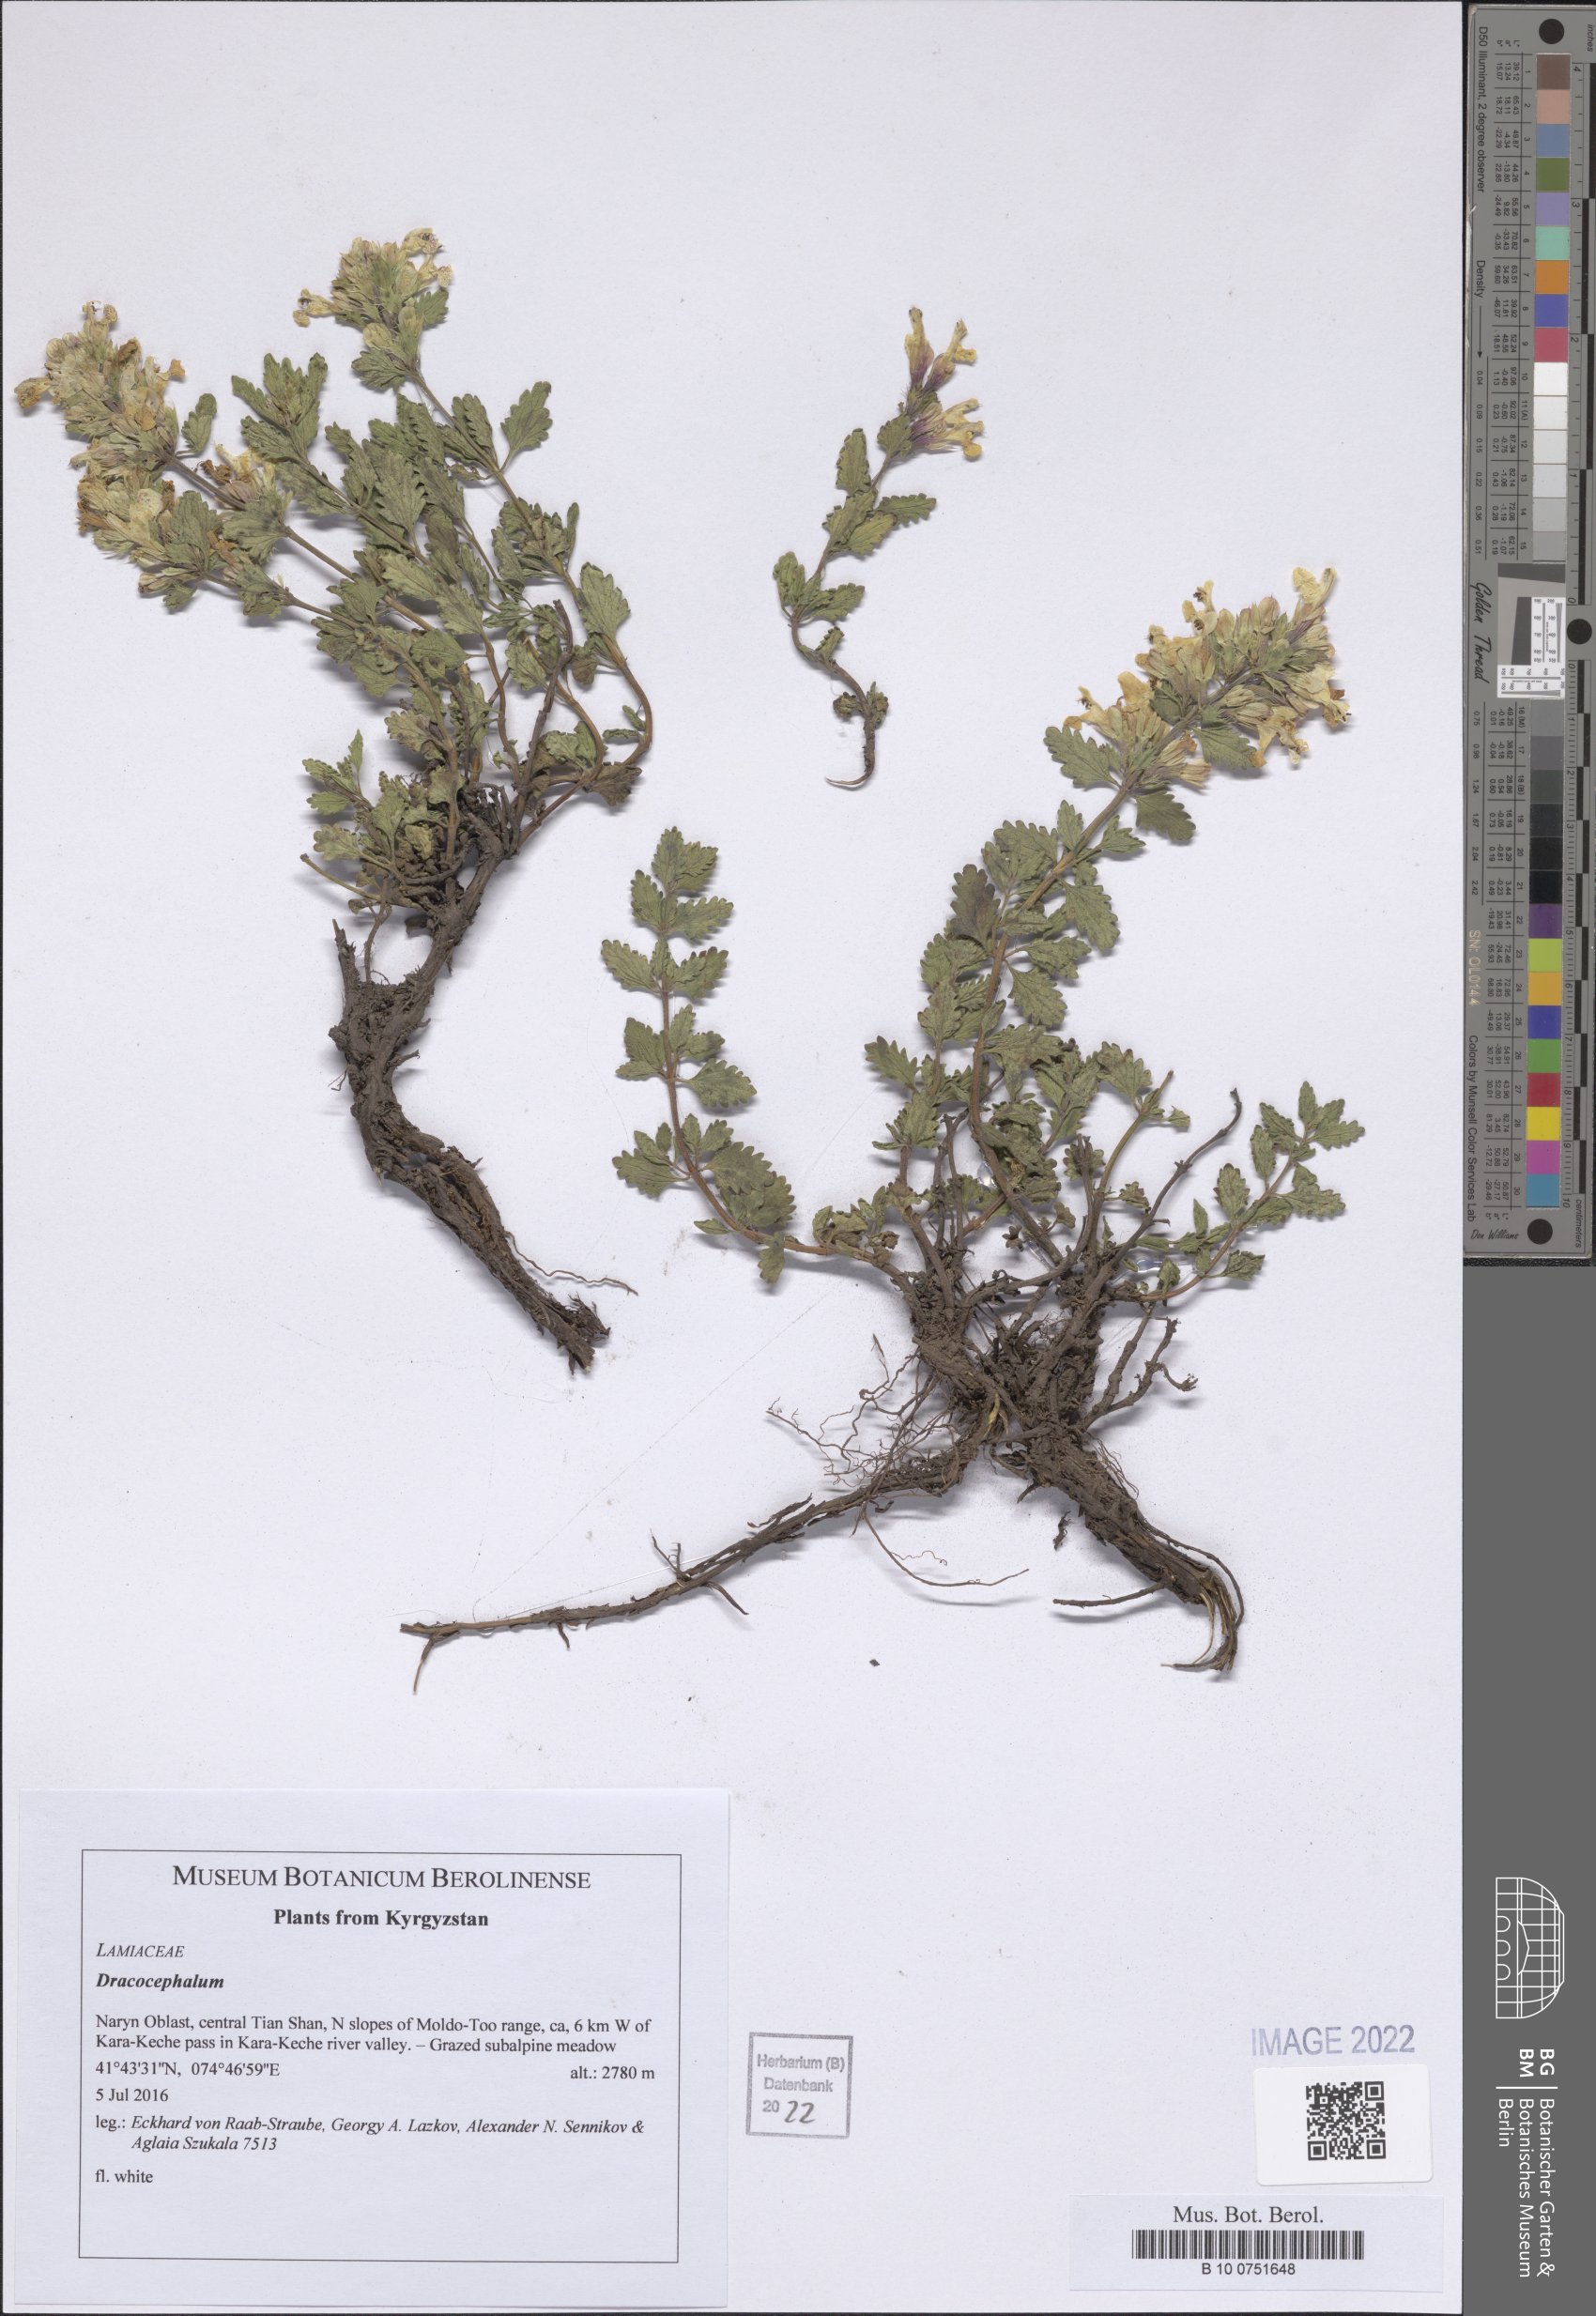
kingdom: Plantae
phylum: Tracheophyta
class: Magnoliopsida
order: Lamiales
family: Lamiaceae
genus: Dracocephalum
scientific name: Dracocephalum
